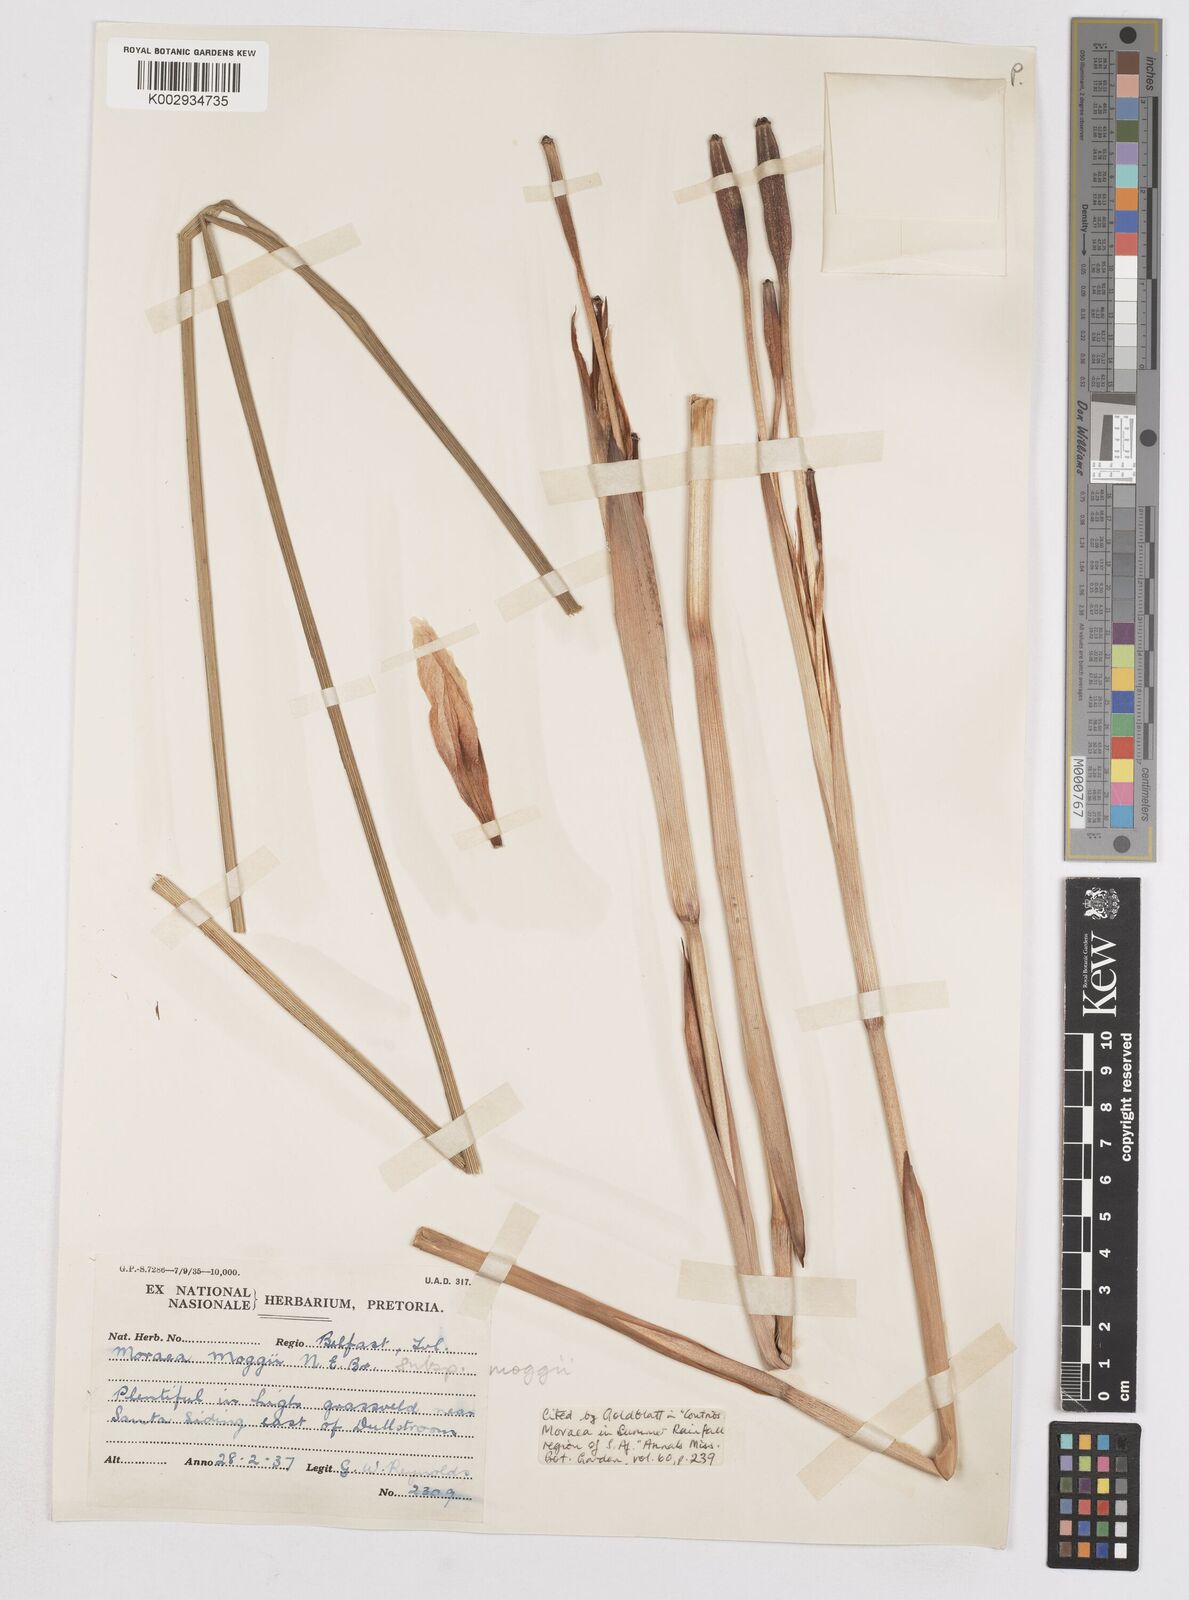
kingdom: Plantae
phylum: Tracheophyta
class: Liliopsida
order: Asparagales
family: Iridaceae
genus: Moraea
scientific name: Moraea moggii
